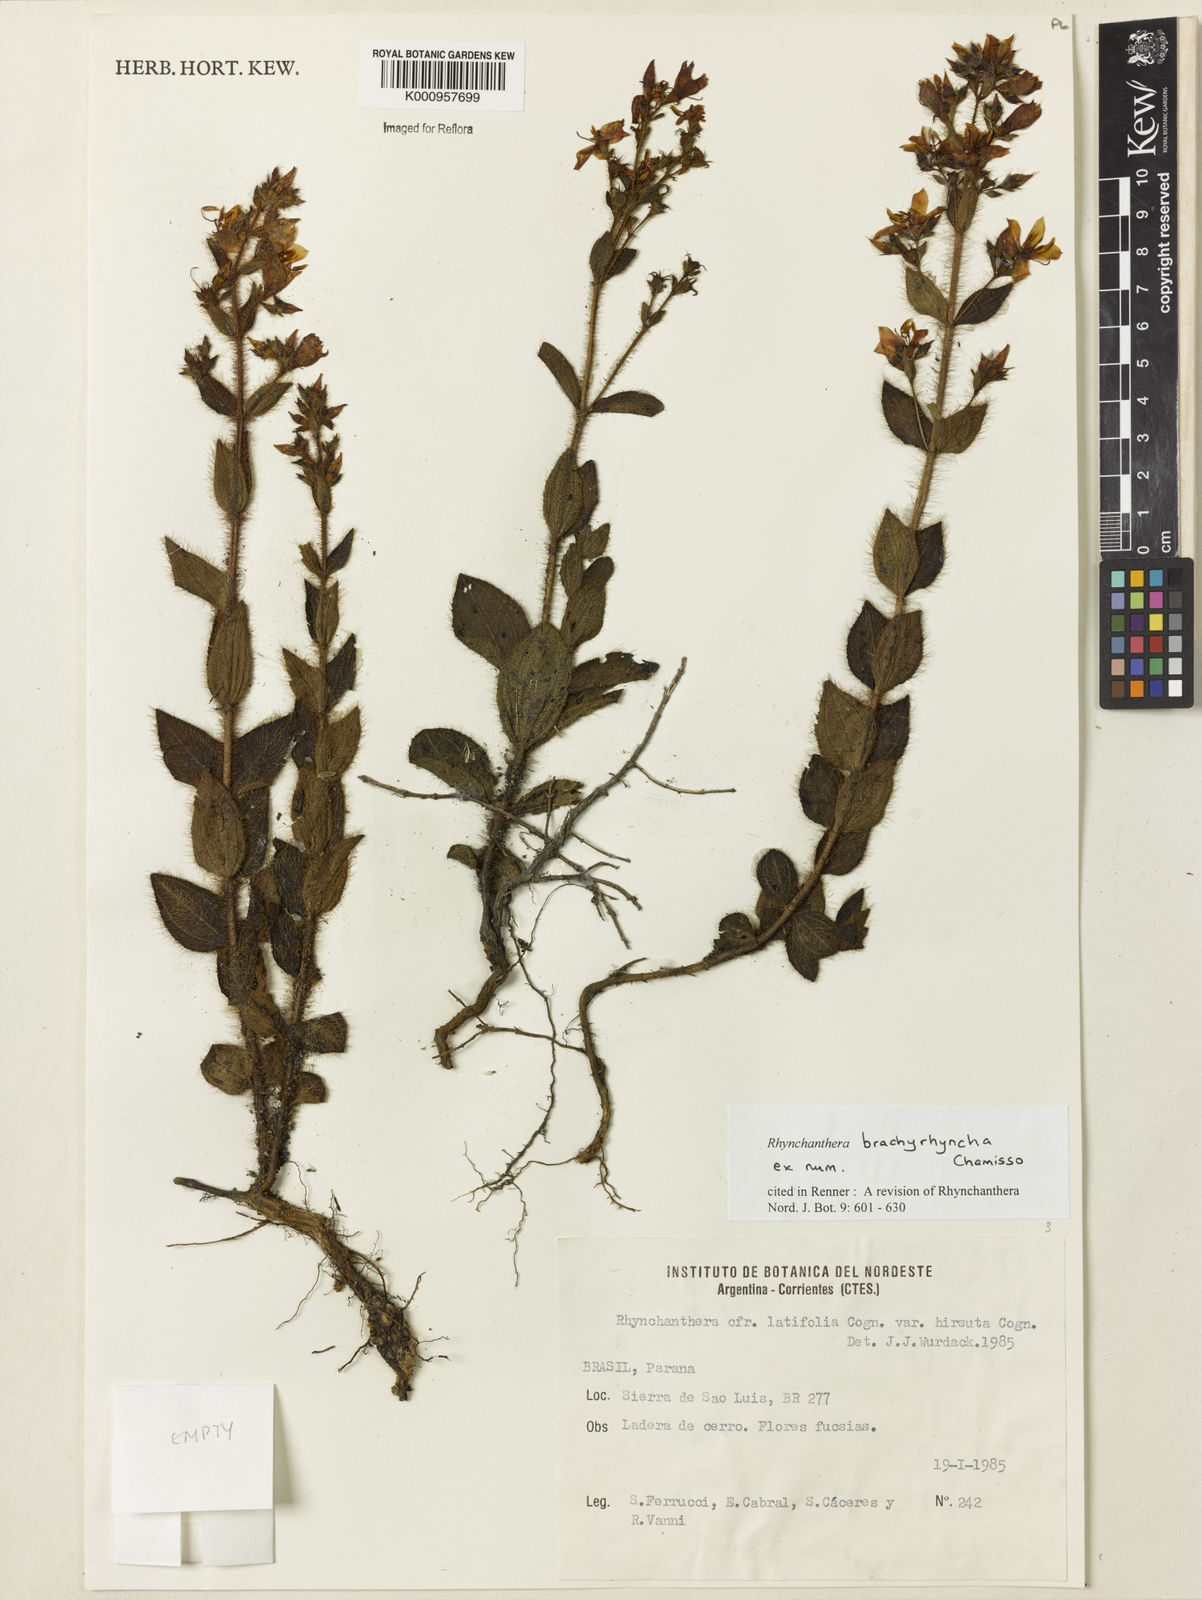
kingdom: Plantae
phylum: Tracheophyta
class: Magnoliopsida
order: Myrtales
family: Melastomataceae
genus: Rhynchanthera
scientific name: Rhynchanthera brachyrhyncha
